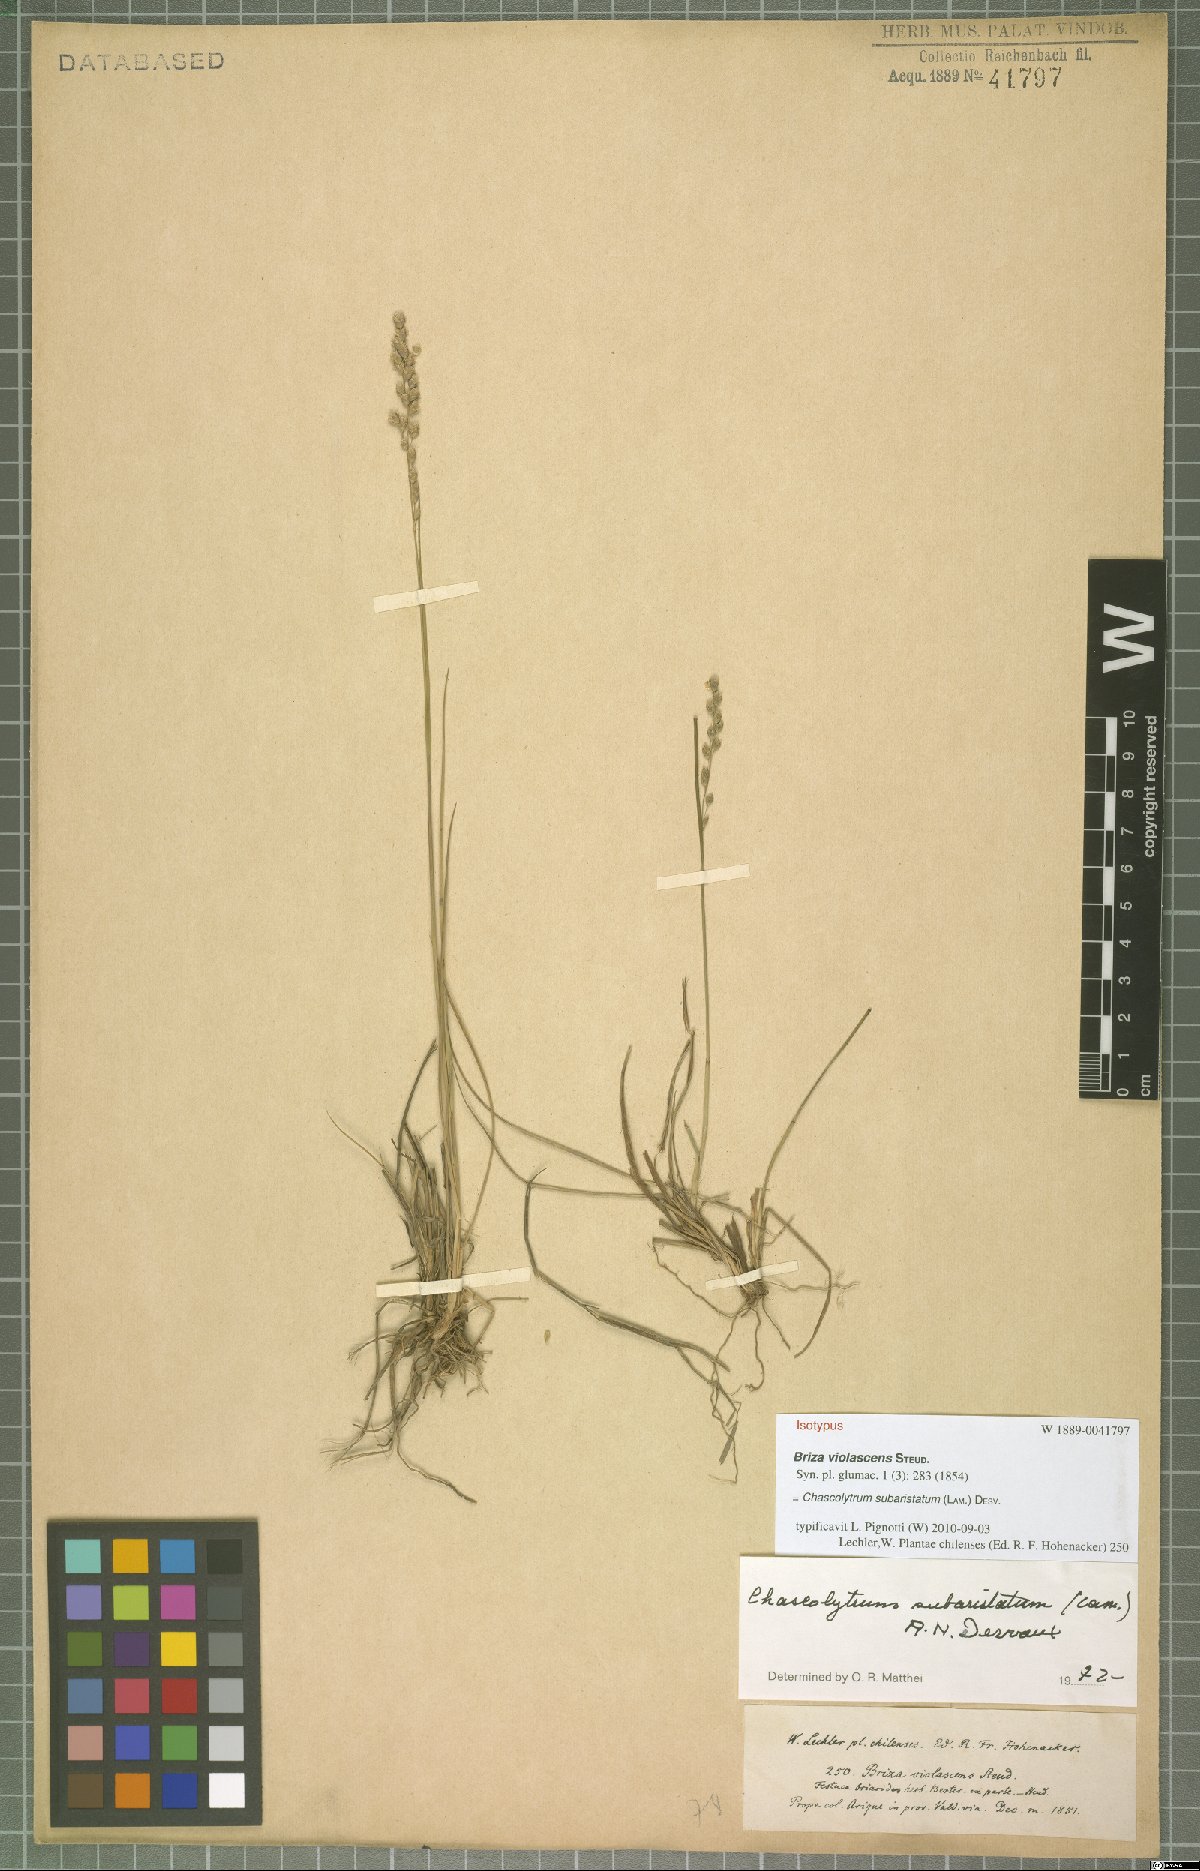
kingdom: Plantae
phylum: Tracheophyta
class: Liliopsida
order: Poales
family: Poaceae
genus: Chascolytrum
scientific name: Chascolytrum subaristatum
